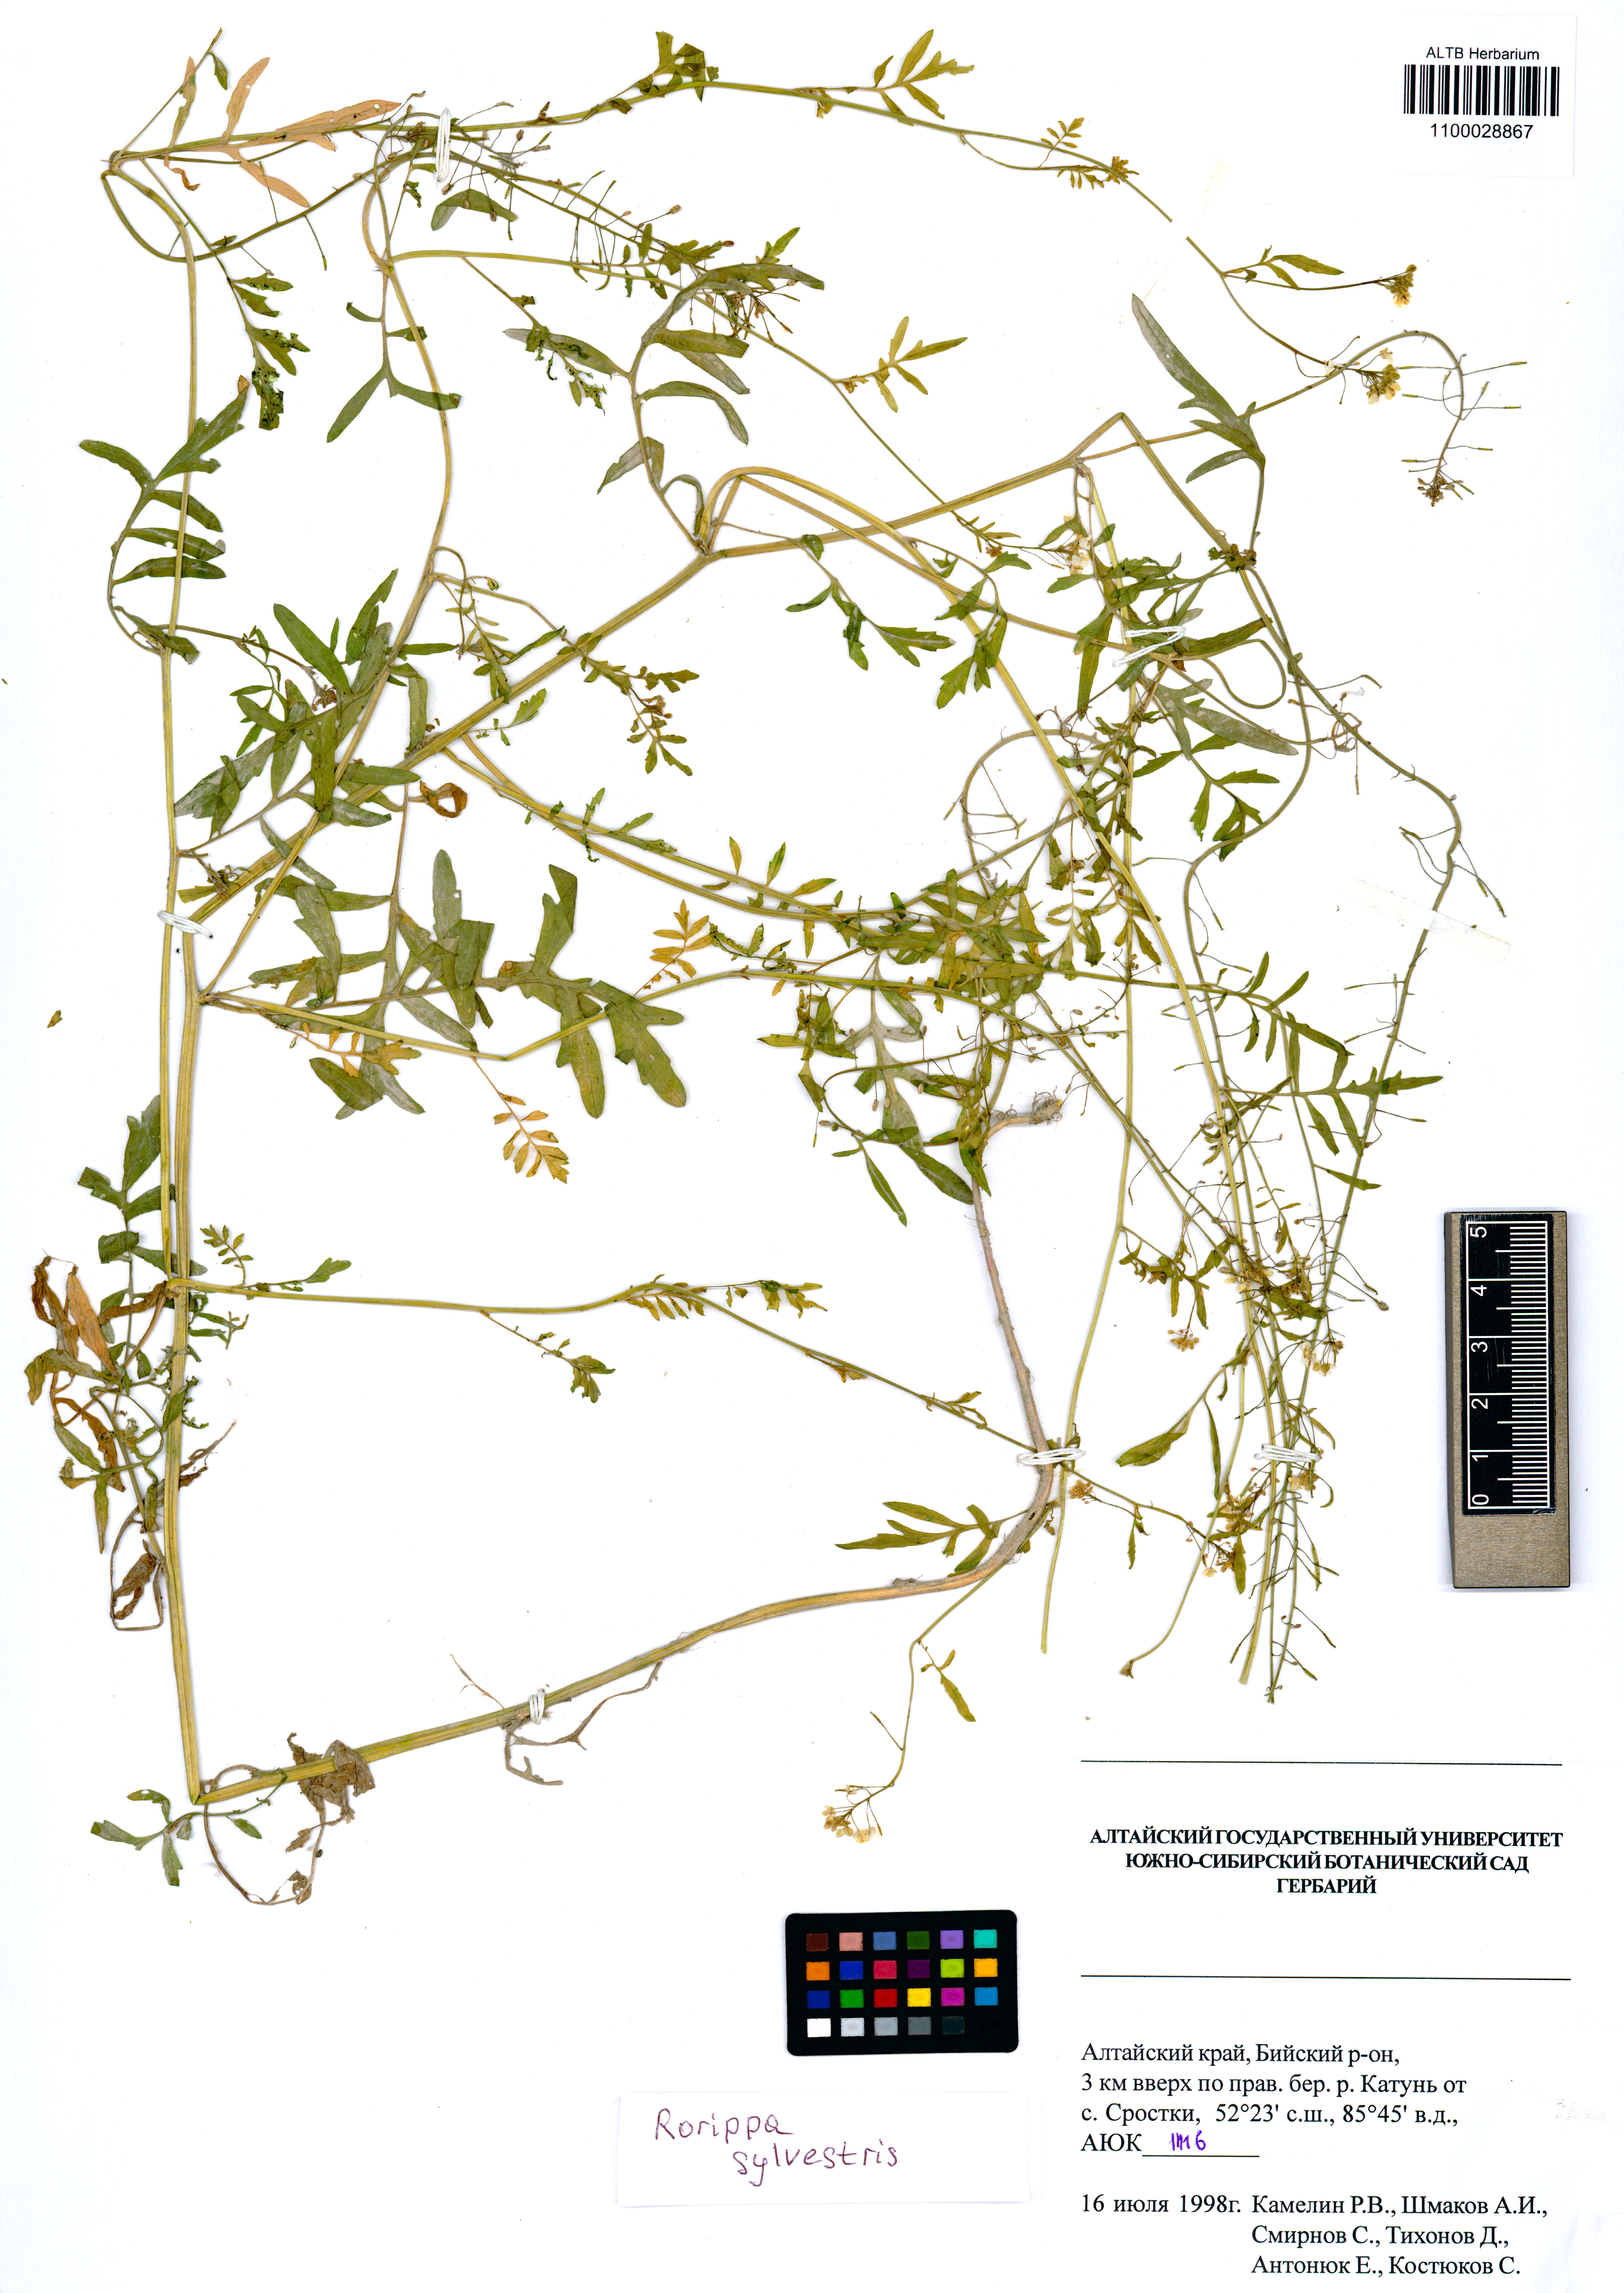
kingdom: Plantae
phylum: Tracheophyta
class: Magnoliopsida
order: Brassicales
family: Brassicaceae
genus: Rorippa
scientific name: Rorippa sylvestris
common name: Creeping yellowcress
